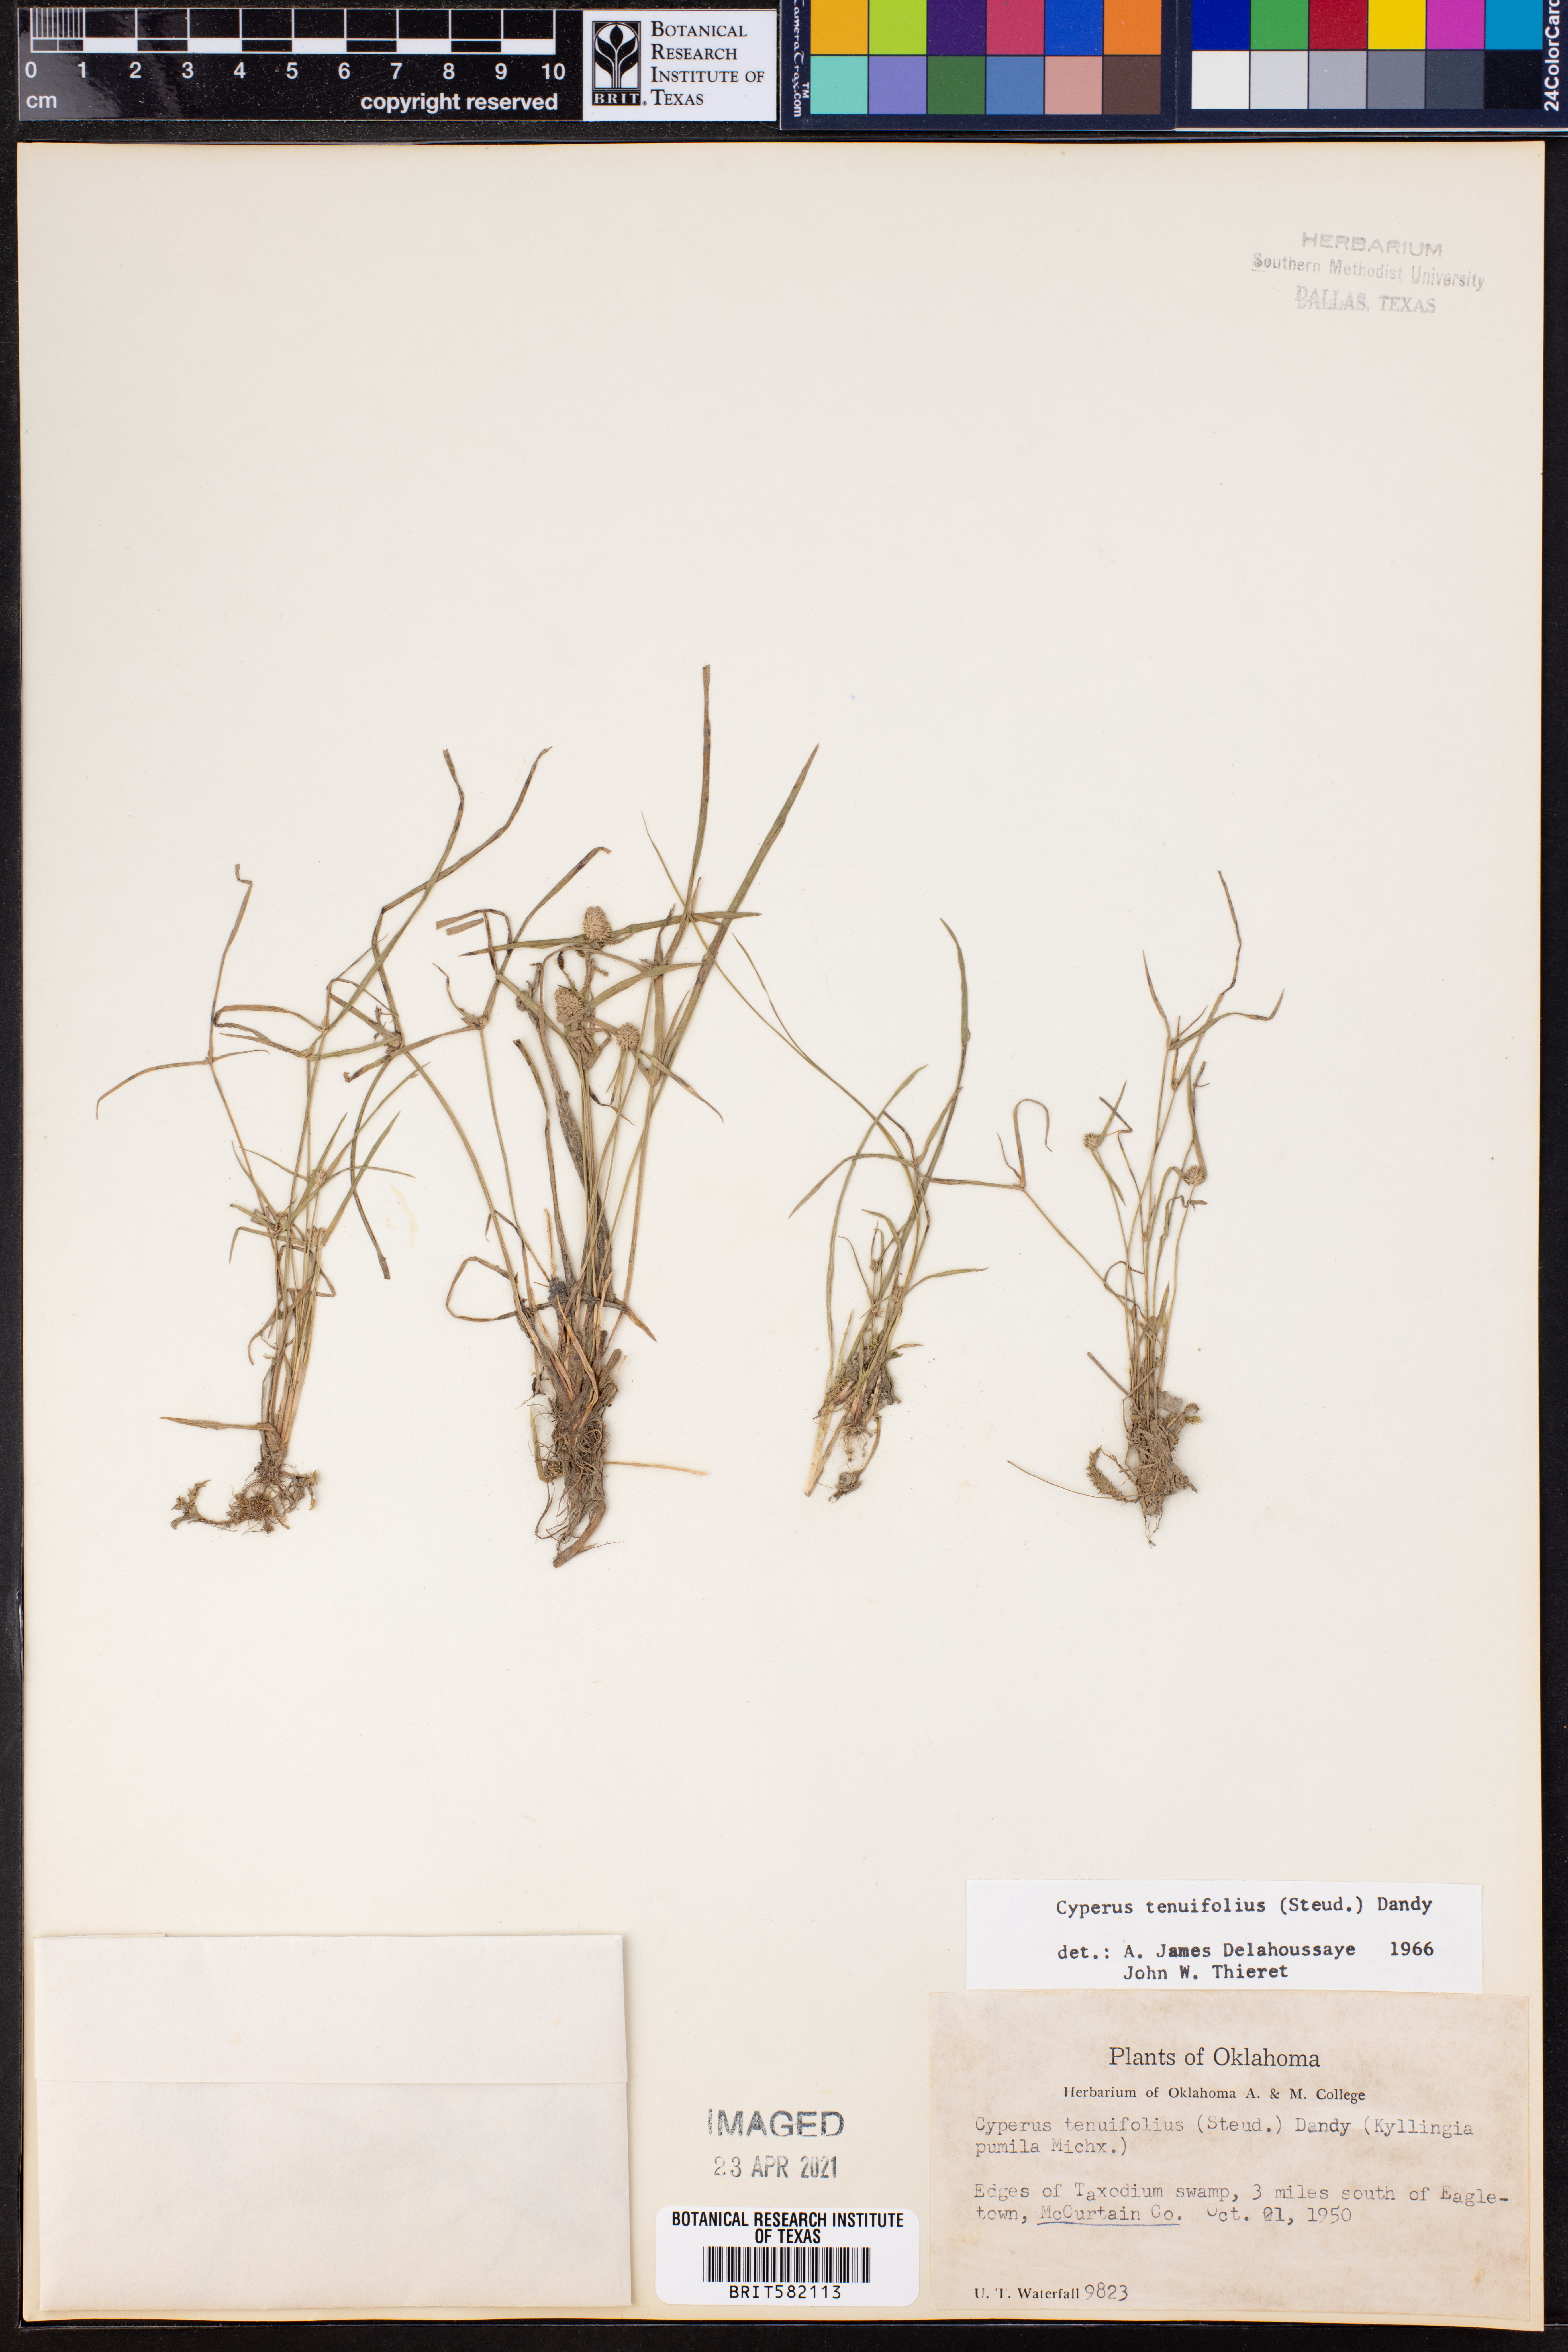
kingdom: Plantae
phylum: Tracheophyta
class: Liliopsida
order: Poales
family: Cyperaceae
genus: Cyperus
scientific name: Cyperus tenuifolius
